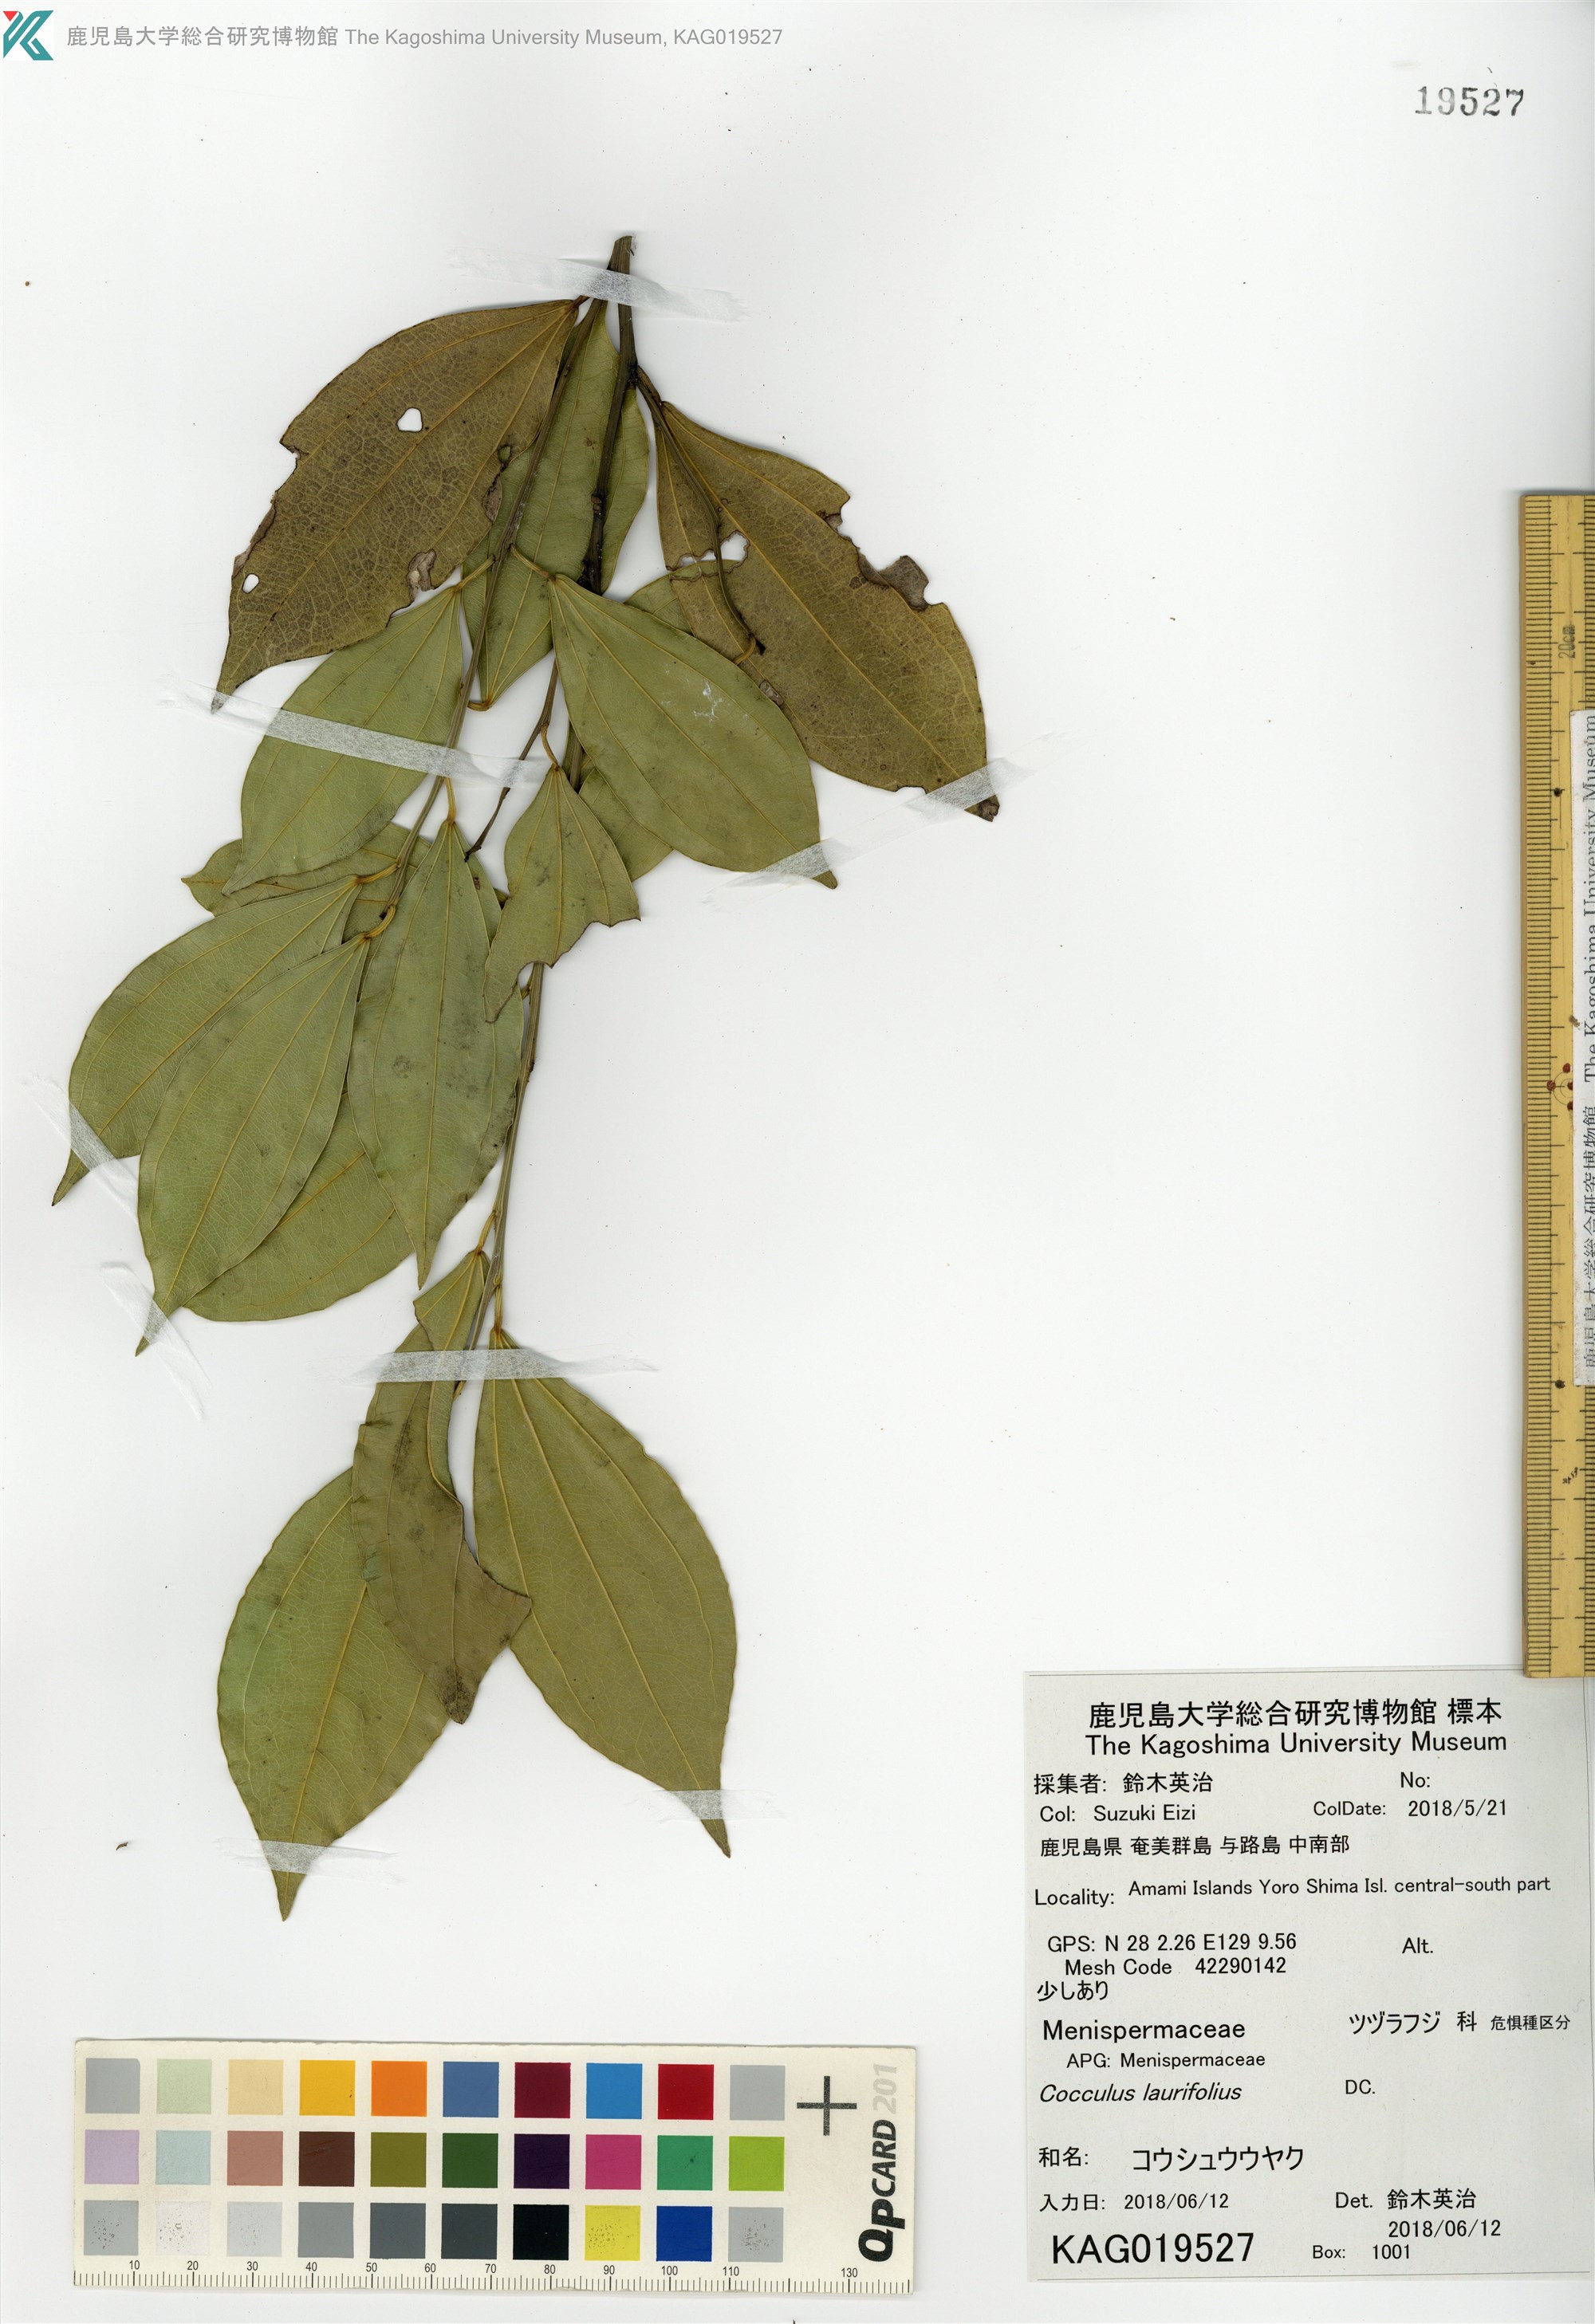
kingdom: Plantae
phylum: Tracheophyta
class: Magnoliopsida
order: Ranunculales
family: Menispermaceae
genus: Cocculus
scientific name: Cocculus laurifolius
